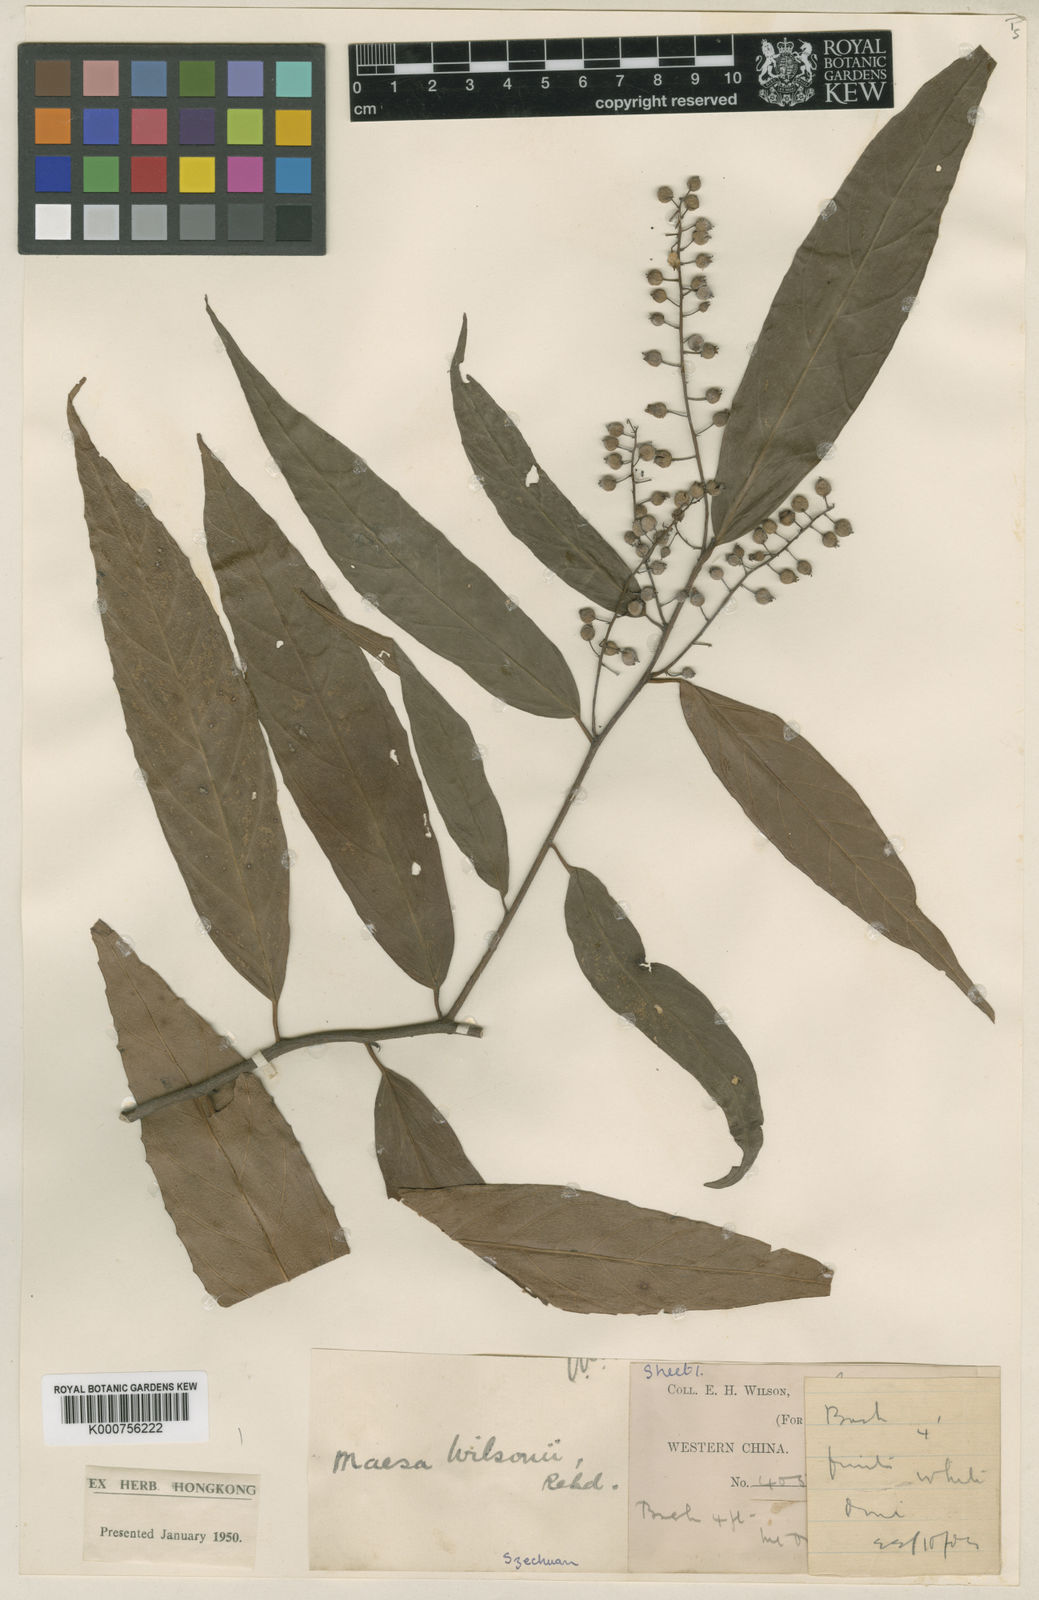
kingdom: Plantae
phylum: Tracheophyta
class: Magnoliopsida
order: Ericales
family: Primulaceae
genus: Maesa
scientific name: Maesa hupehensis
